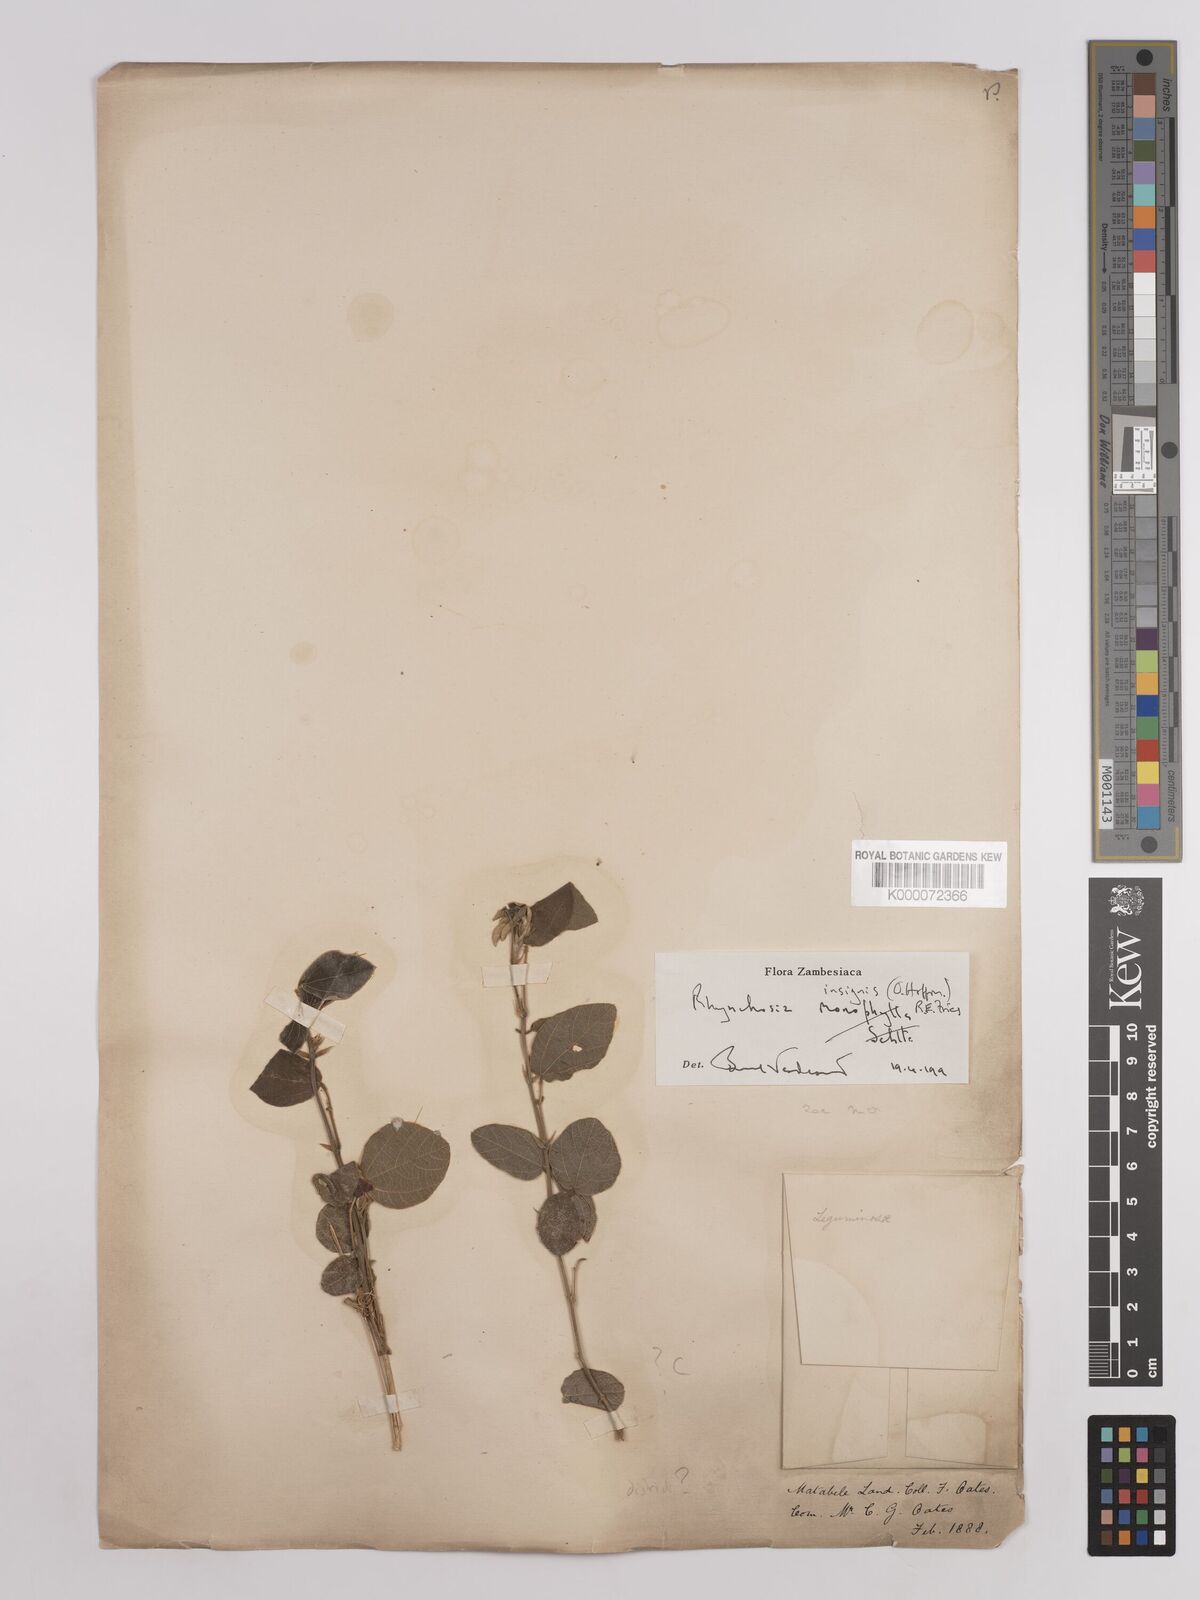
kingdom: Plantae
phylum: Tracheophyta
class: Magnoliopsida
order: Fabales
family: Fabaceae
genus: Rhynchosia
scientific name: Rhynchosia insignis
